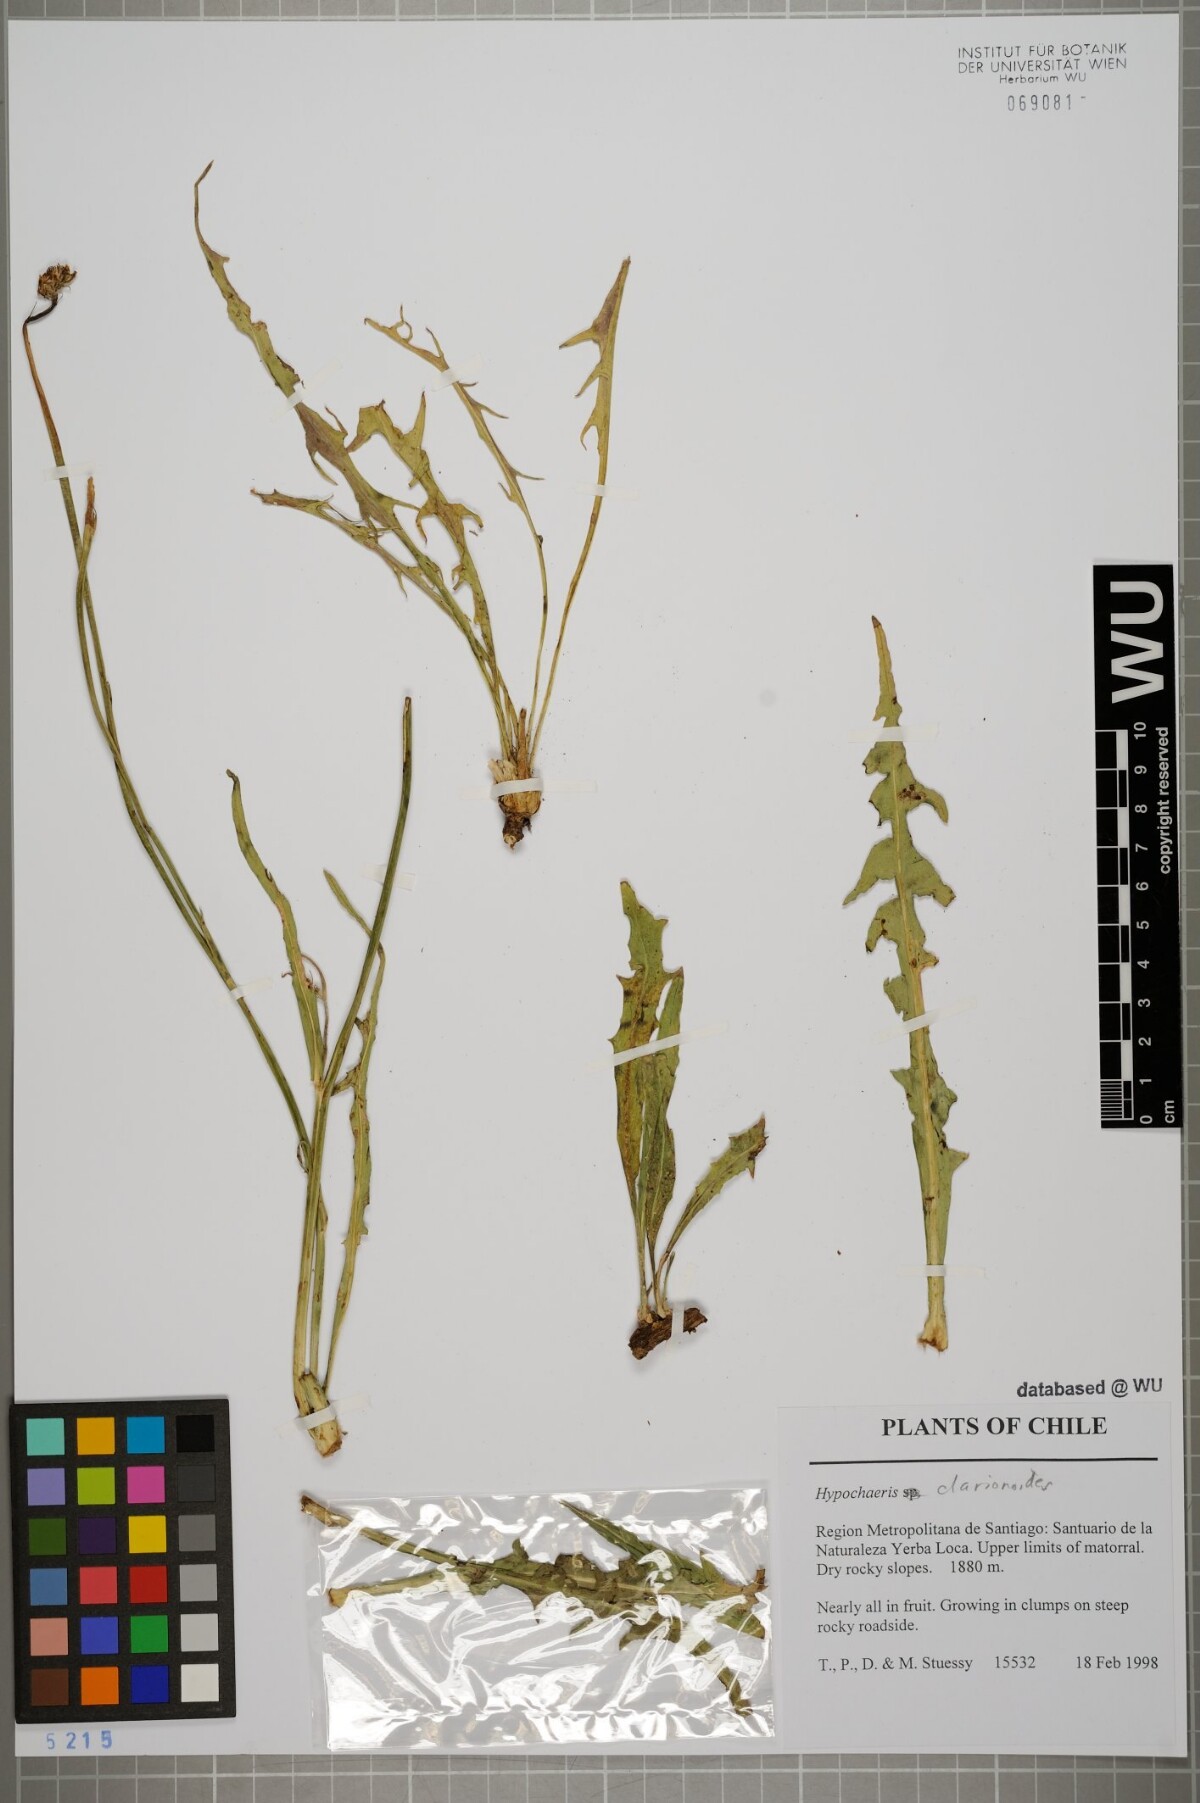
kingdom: Plantae
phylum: Tracheophyta
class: Magnoliopsida
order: Asterales
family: Asteraceae
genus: Hypochaeris
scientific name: Hypochaeris clarionoides
